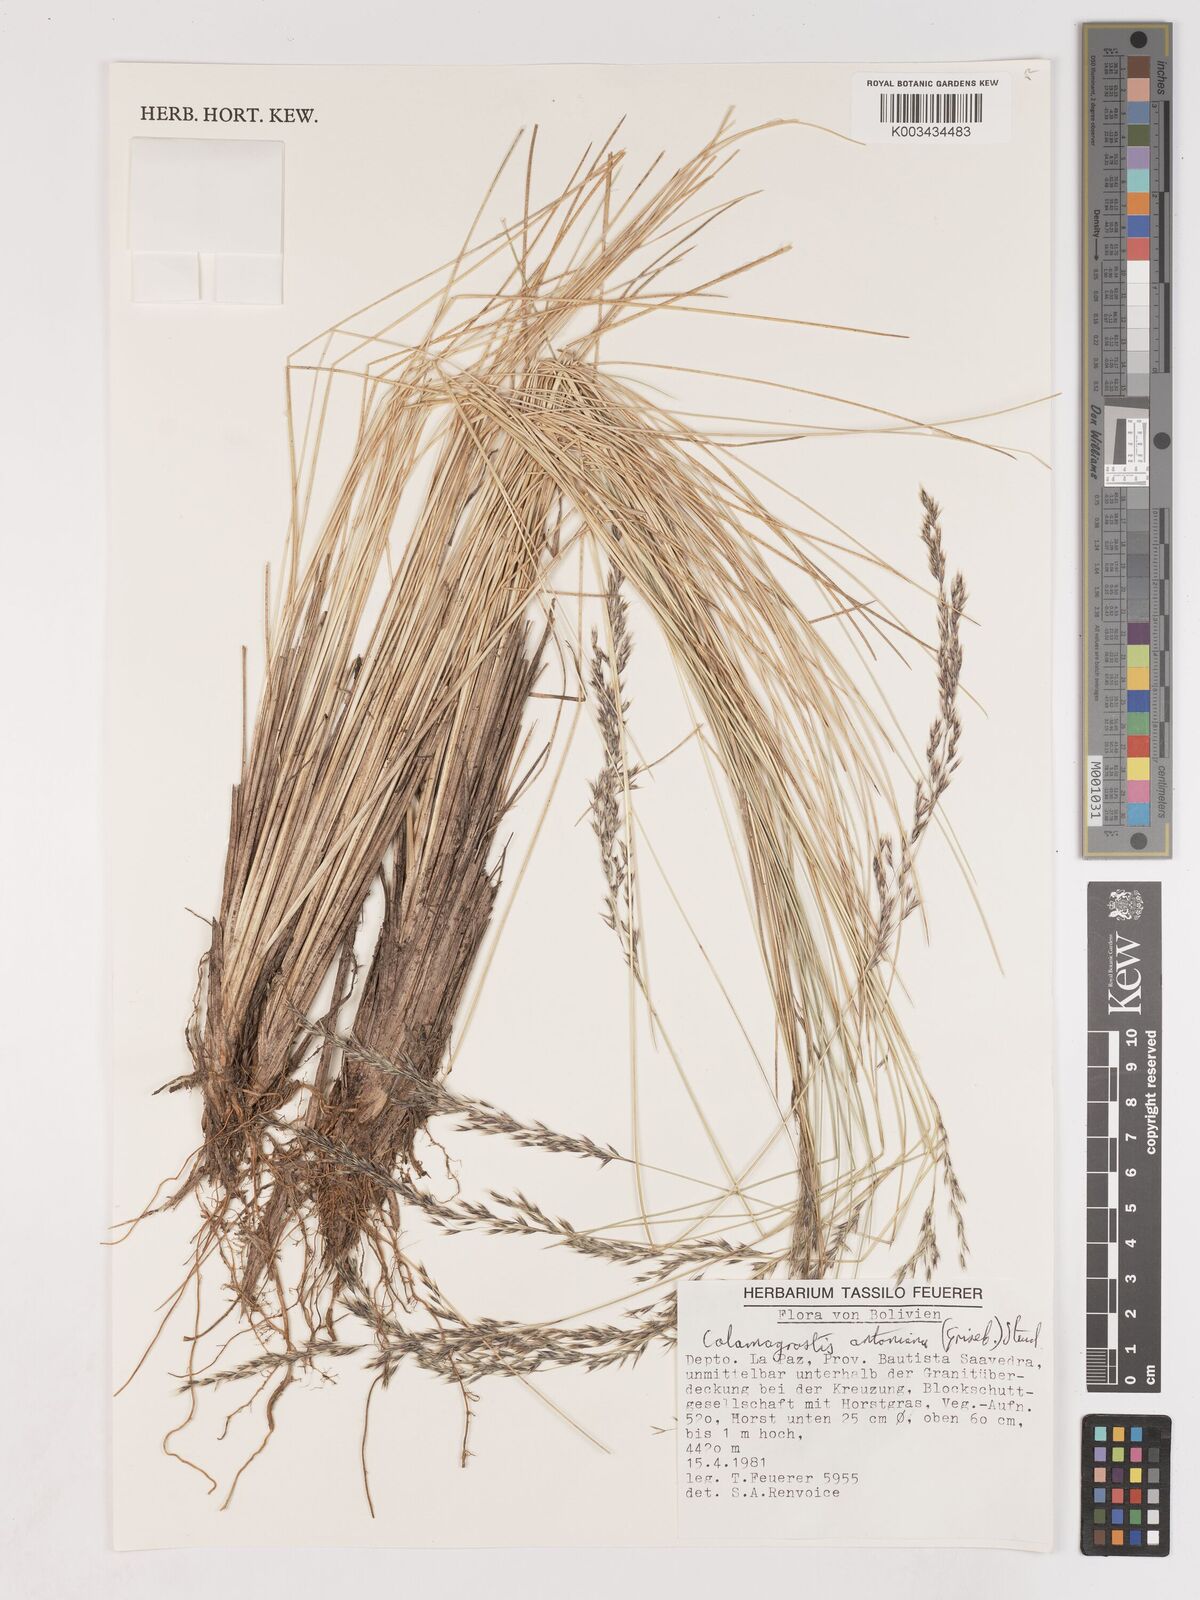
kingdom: Plantae
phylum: Tracheophyta
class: Liliopsida
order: Poales
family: Poaceae
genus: Cinnagrostis
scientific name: Cinnagrostis rigida
